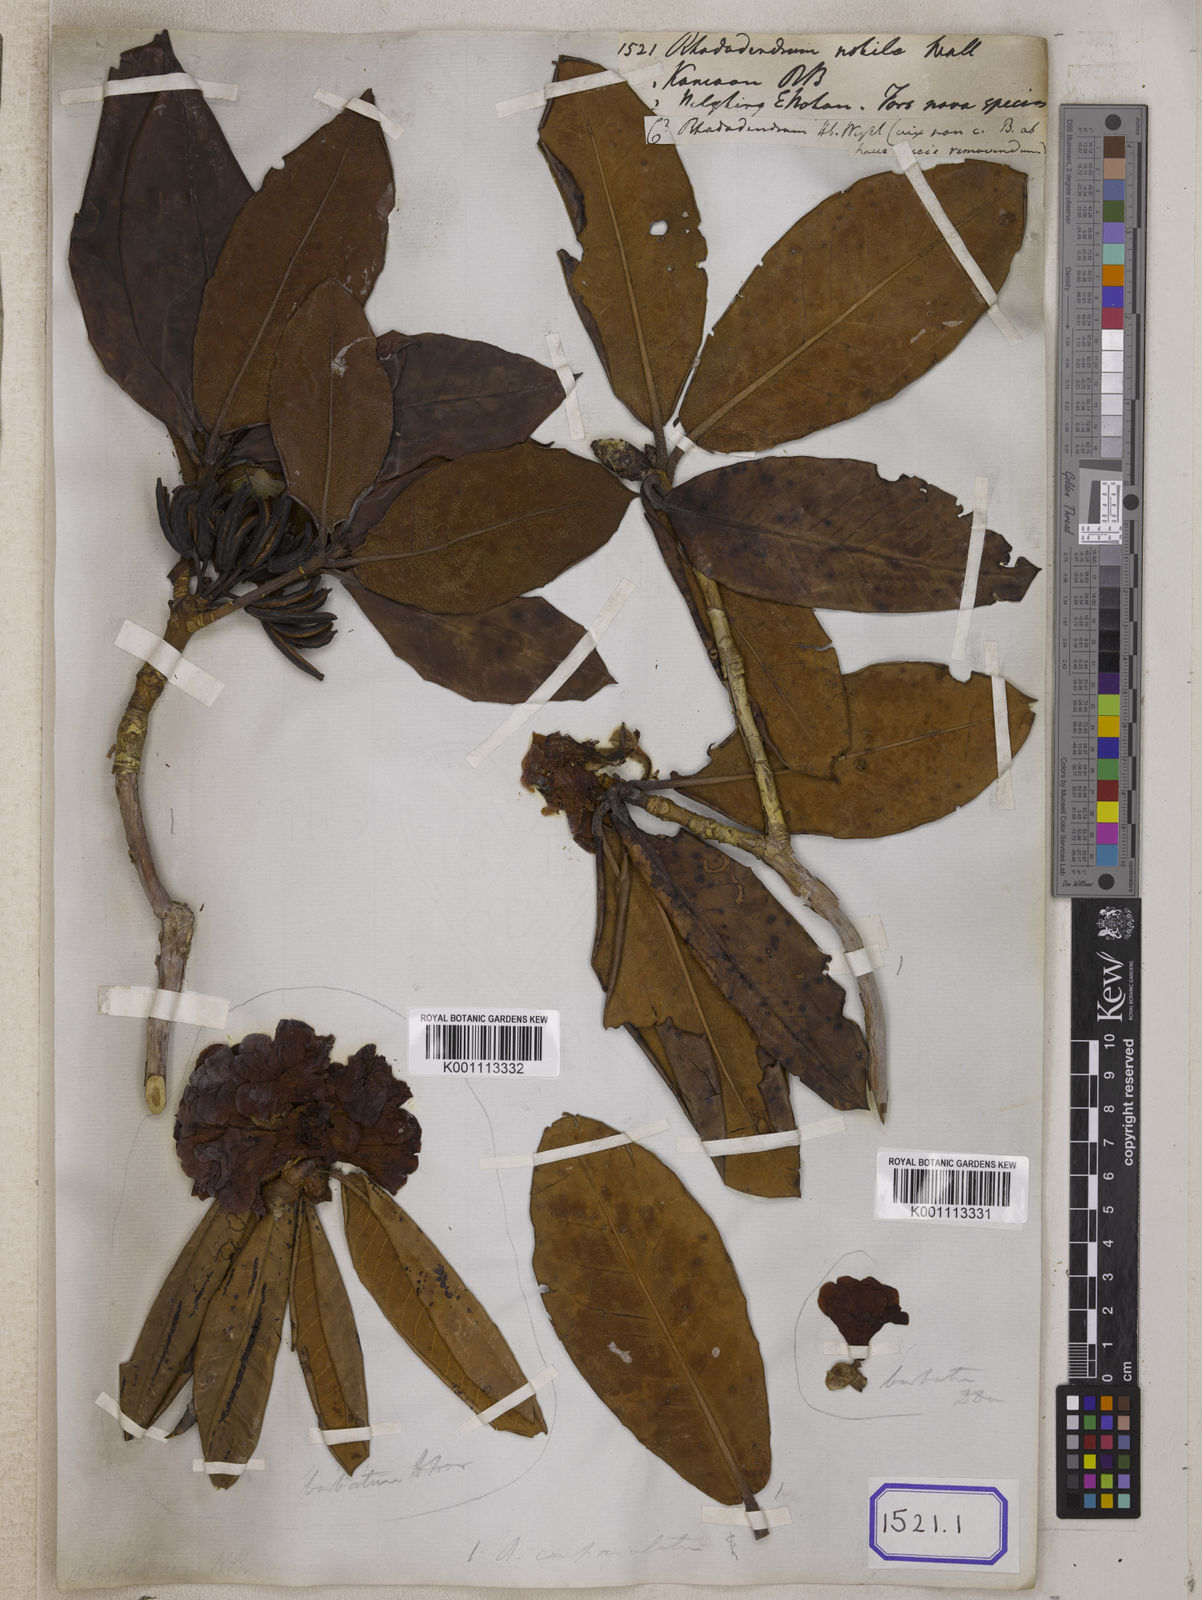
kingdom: Plantae
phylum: Tracheophyta
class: Magnoliopsida
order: Ericales
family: Ericaceae
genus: Rhododendron
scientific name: Rhododendron campanulatum
